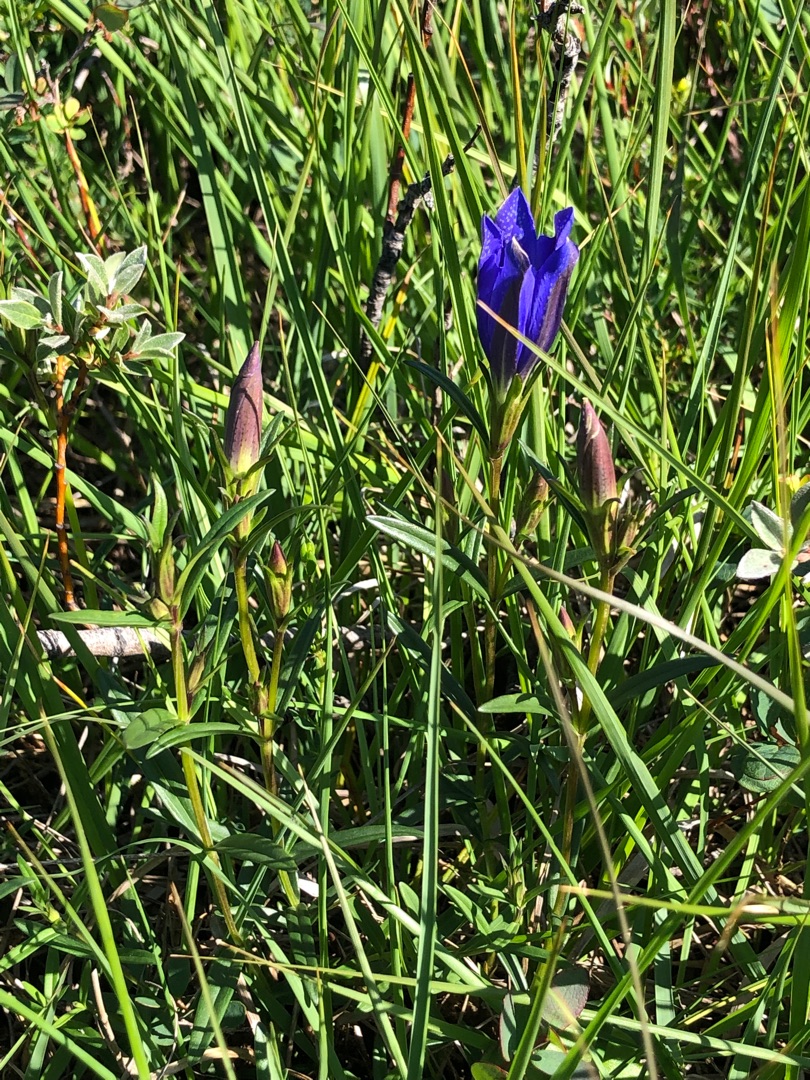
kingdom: Plantae
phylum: Tracheophyta
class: Magnoliopsida
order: Gentianales
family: Gentianaceae
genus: Gentiana
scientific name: Gentiana pneumonanthe
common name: Klokke-ensian
